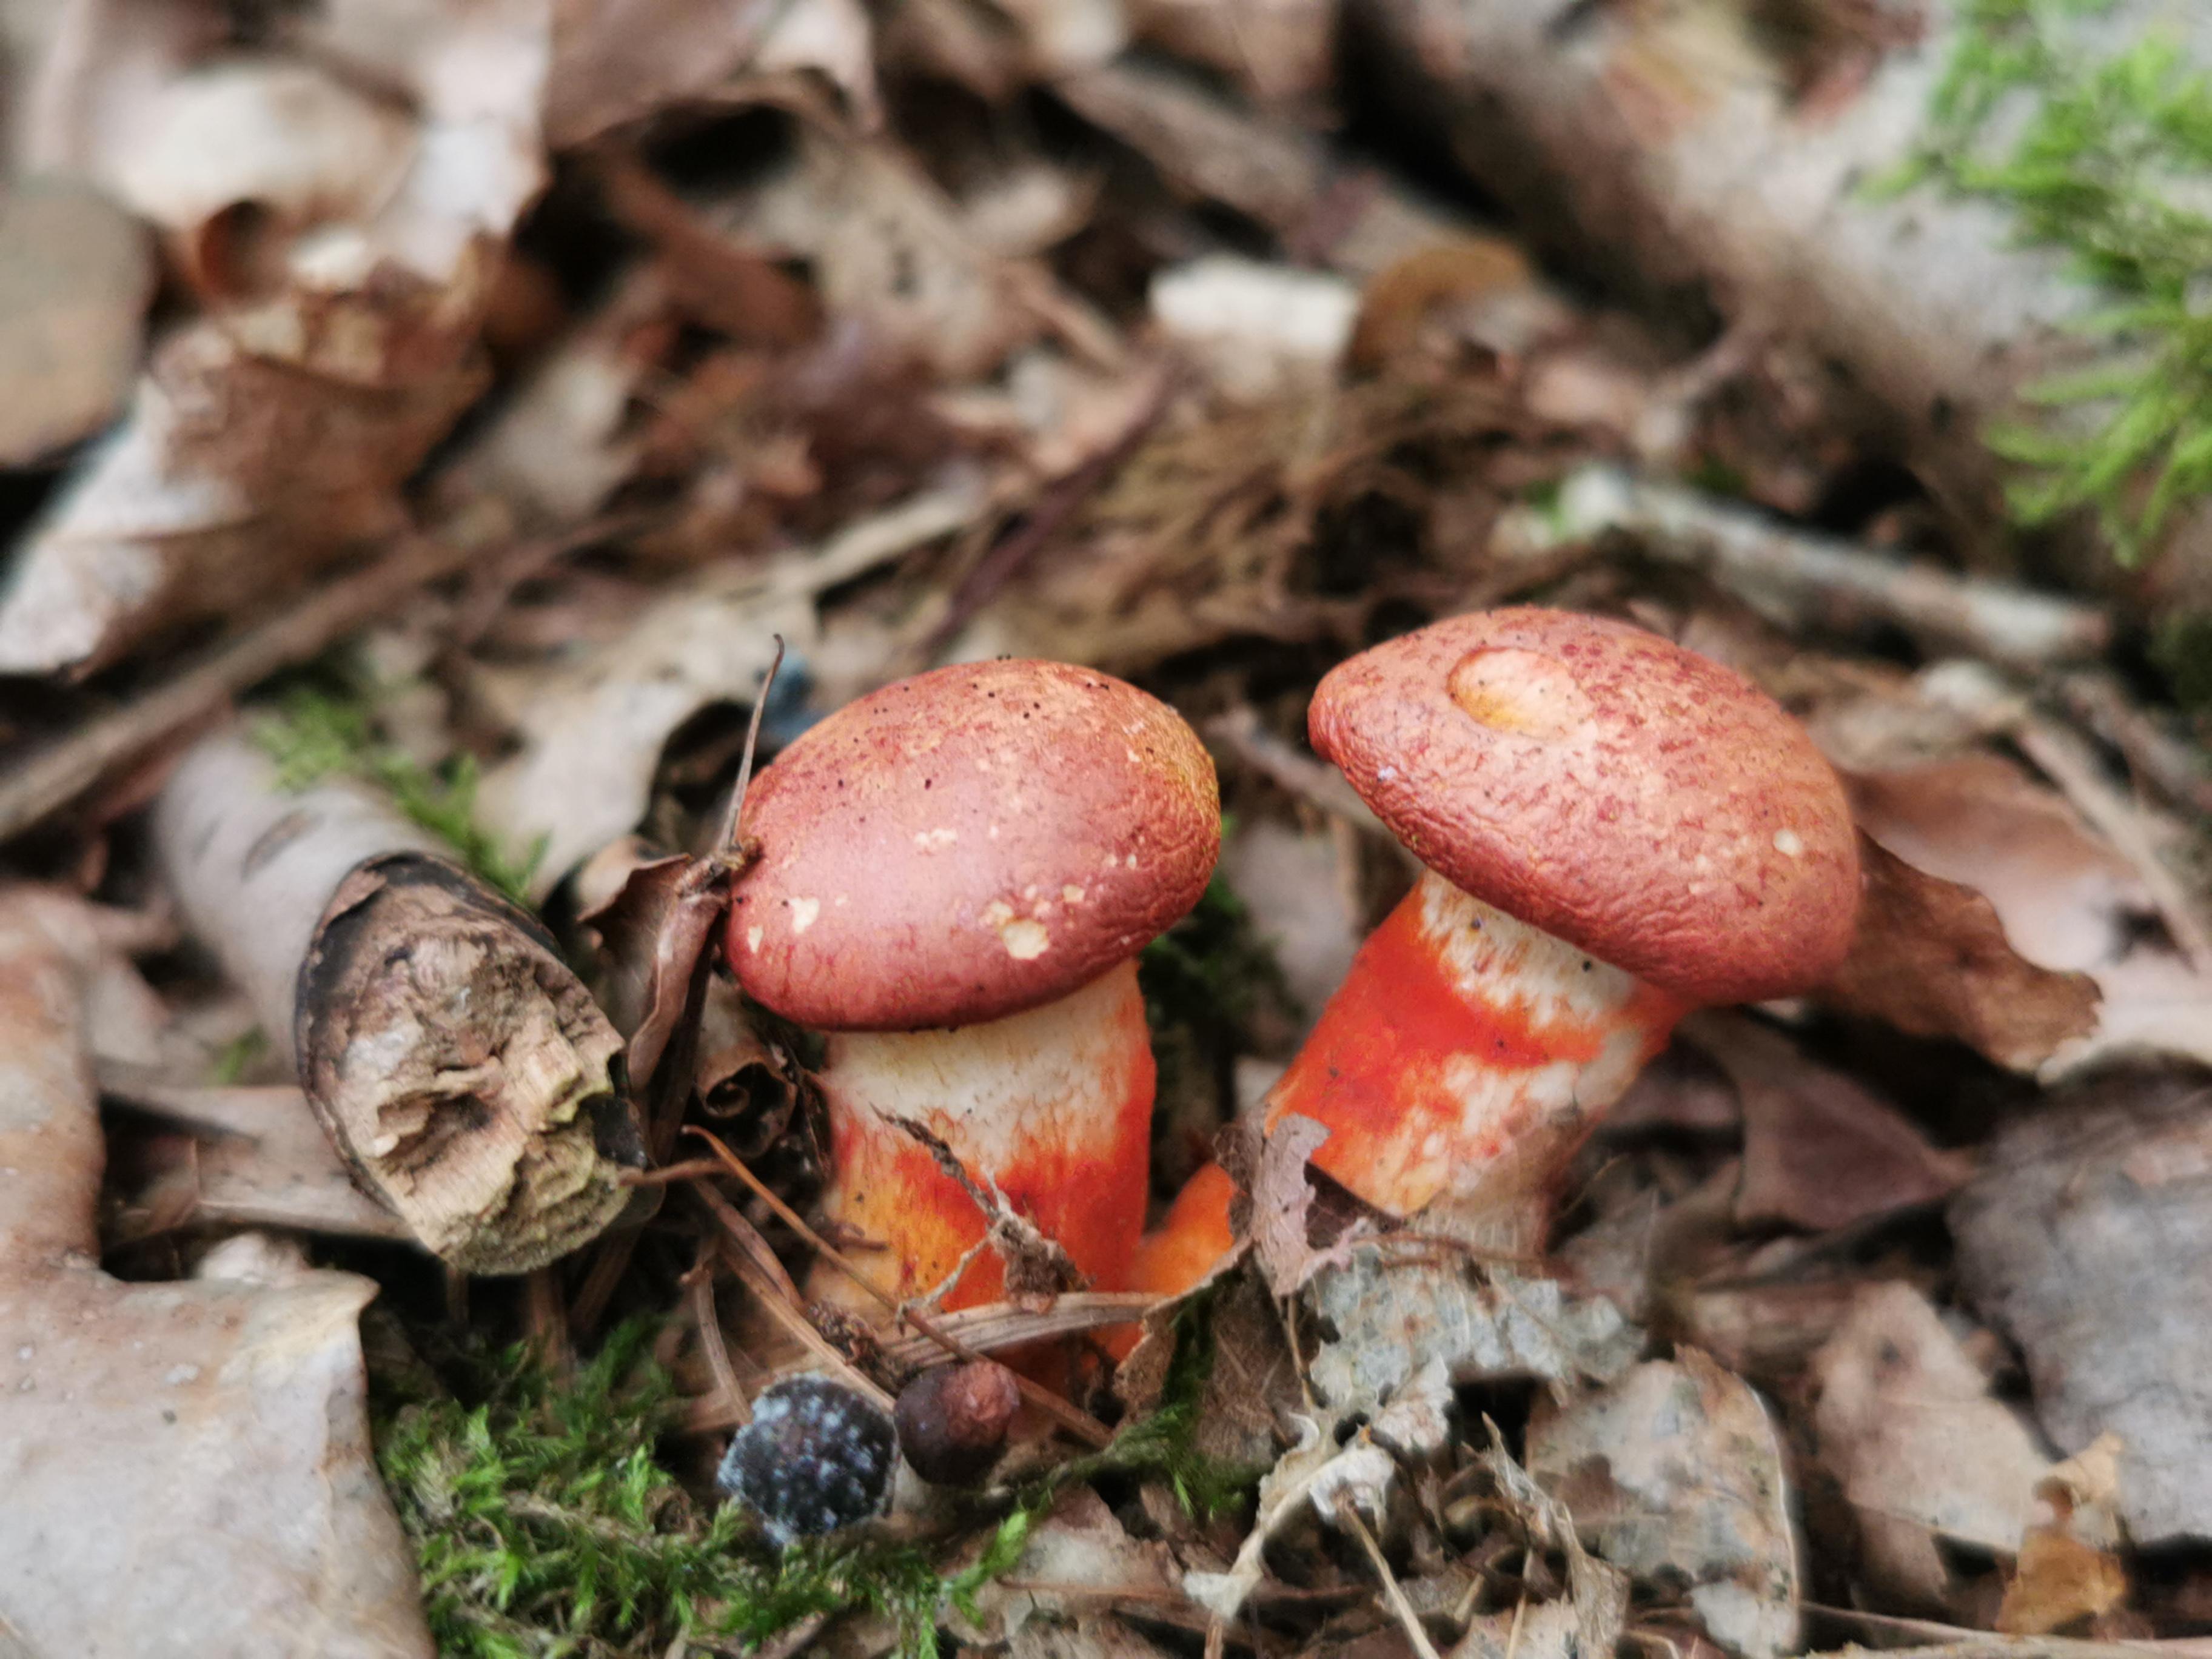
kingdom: Fungi
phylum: Basidiomycota
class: Agaricomycetes
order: Agaricales
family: Cortinariaceae
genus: Cortinarius
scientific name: Cortinarius bolaris
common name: cinnoberskællet slørhat
